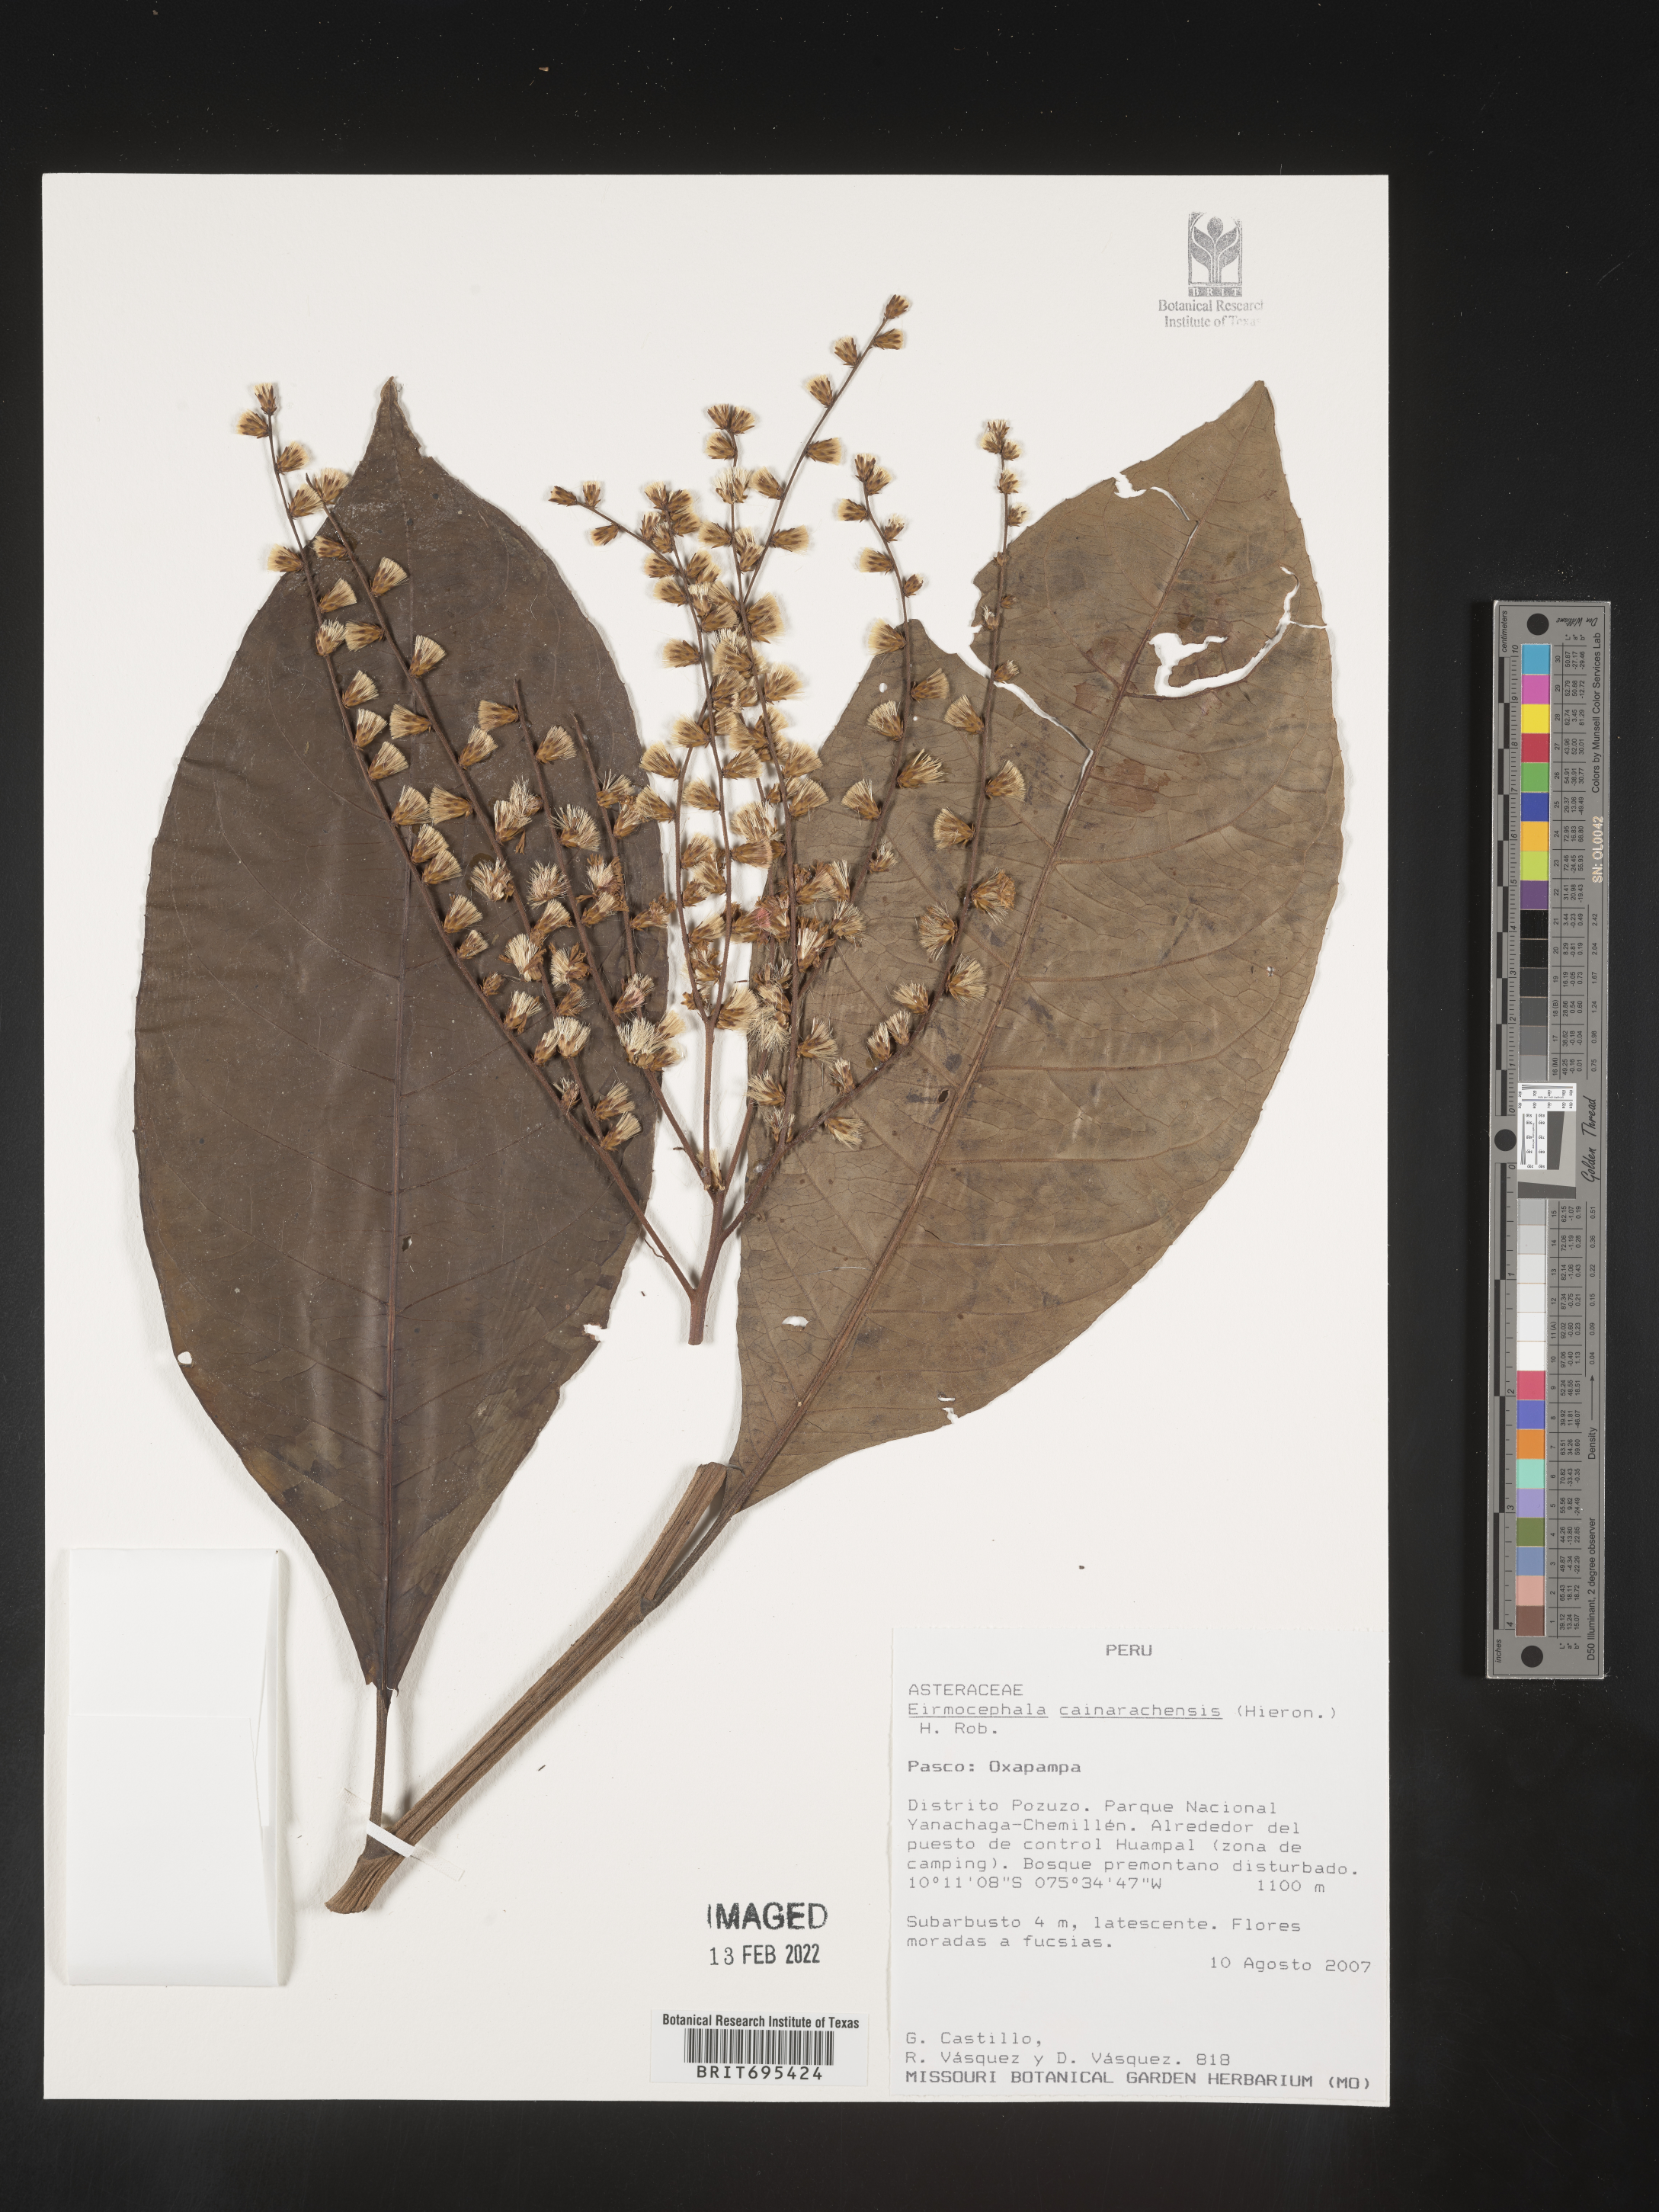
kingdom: Plantae
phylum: Tracheophyta
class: Magnoliopsida
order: Asterales
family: Asteraceae
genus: Eirmocephala
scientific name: Eirmocephala
